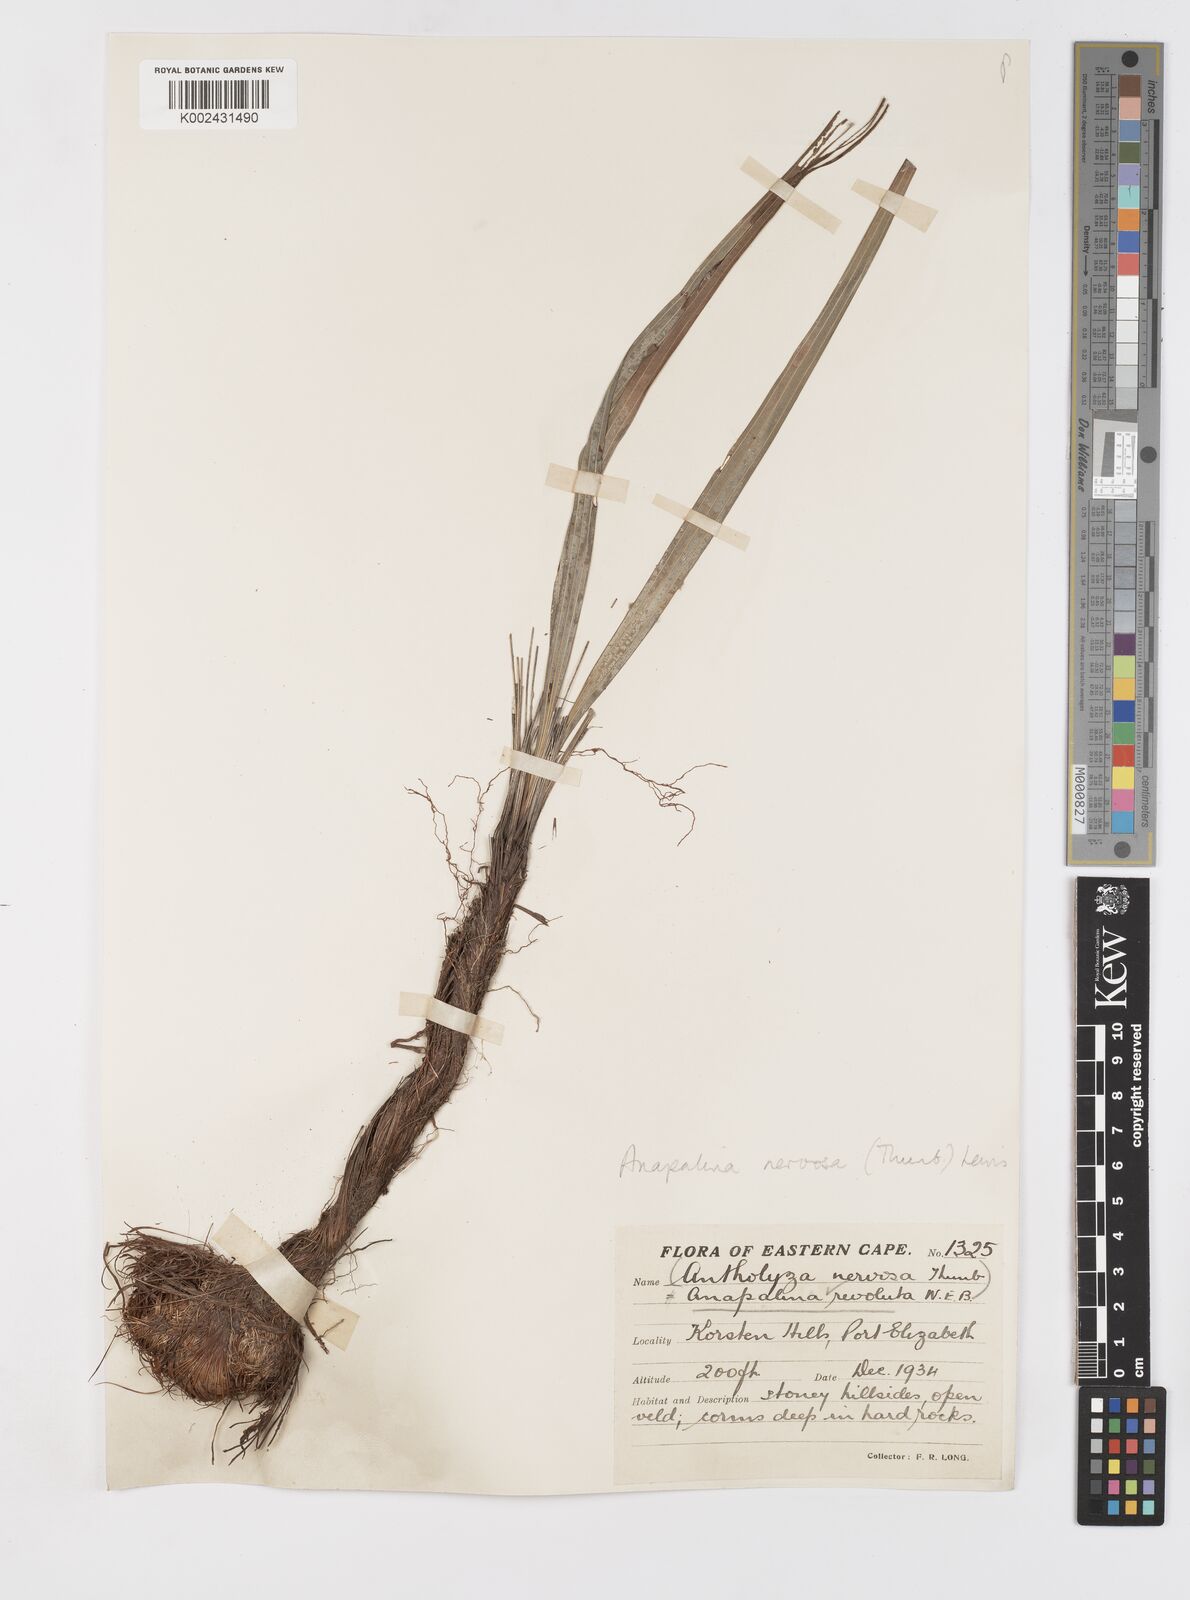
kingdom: Plantae
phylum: Tracheophyta
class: Liliopsida
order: Asparagales
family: Iridaceae
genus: Tritoniopsis
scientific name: Tritoniopsis nervosa
